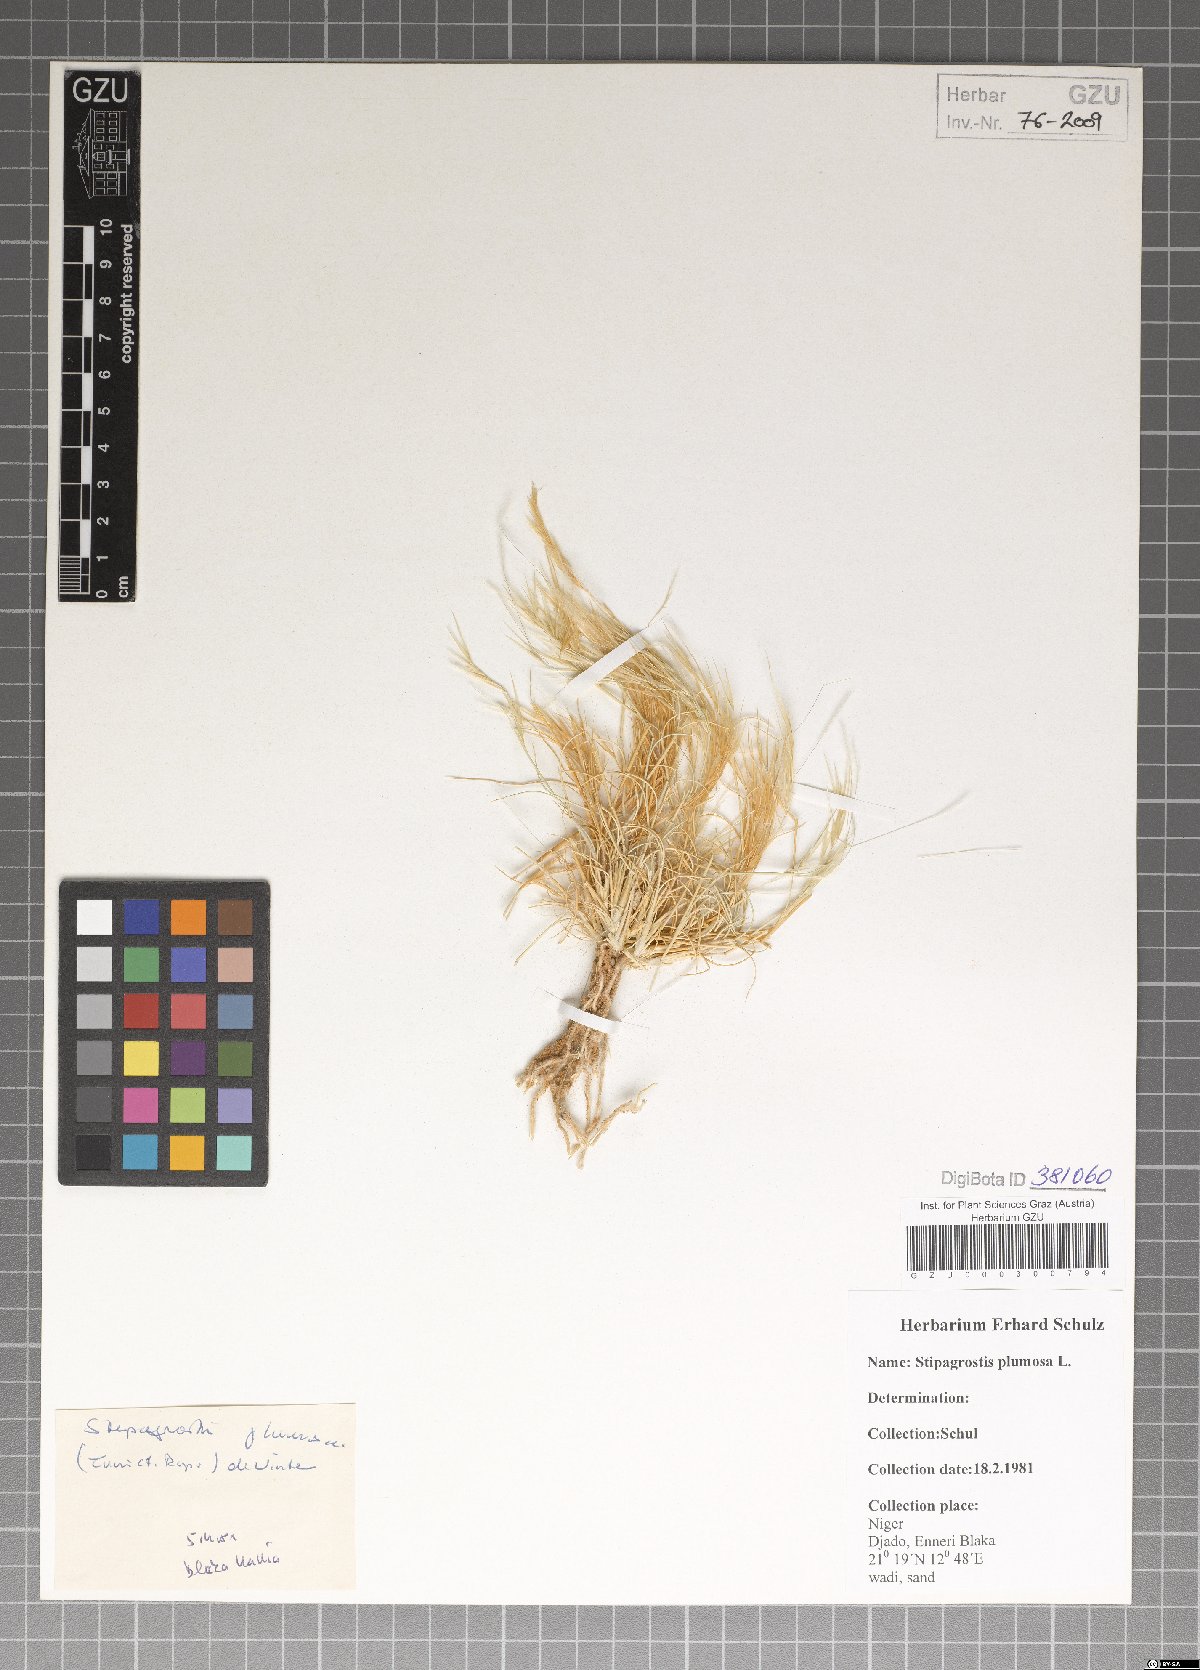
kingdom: Plantae
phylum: Tracheophyta
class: Liliopsida
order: Poales
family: Poaceae
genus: Stipagrostis
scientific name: Stipagrostis plumosa
